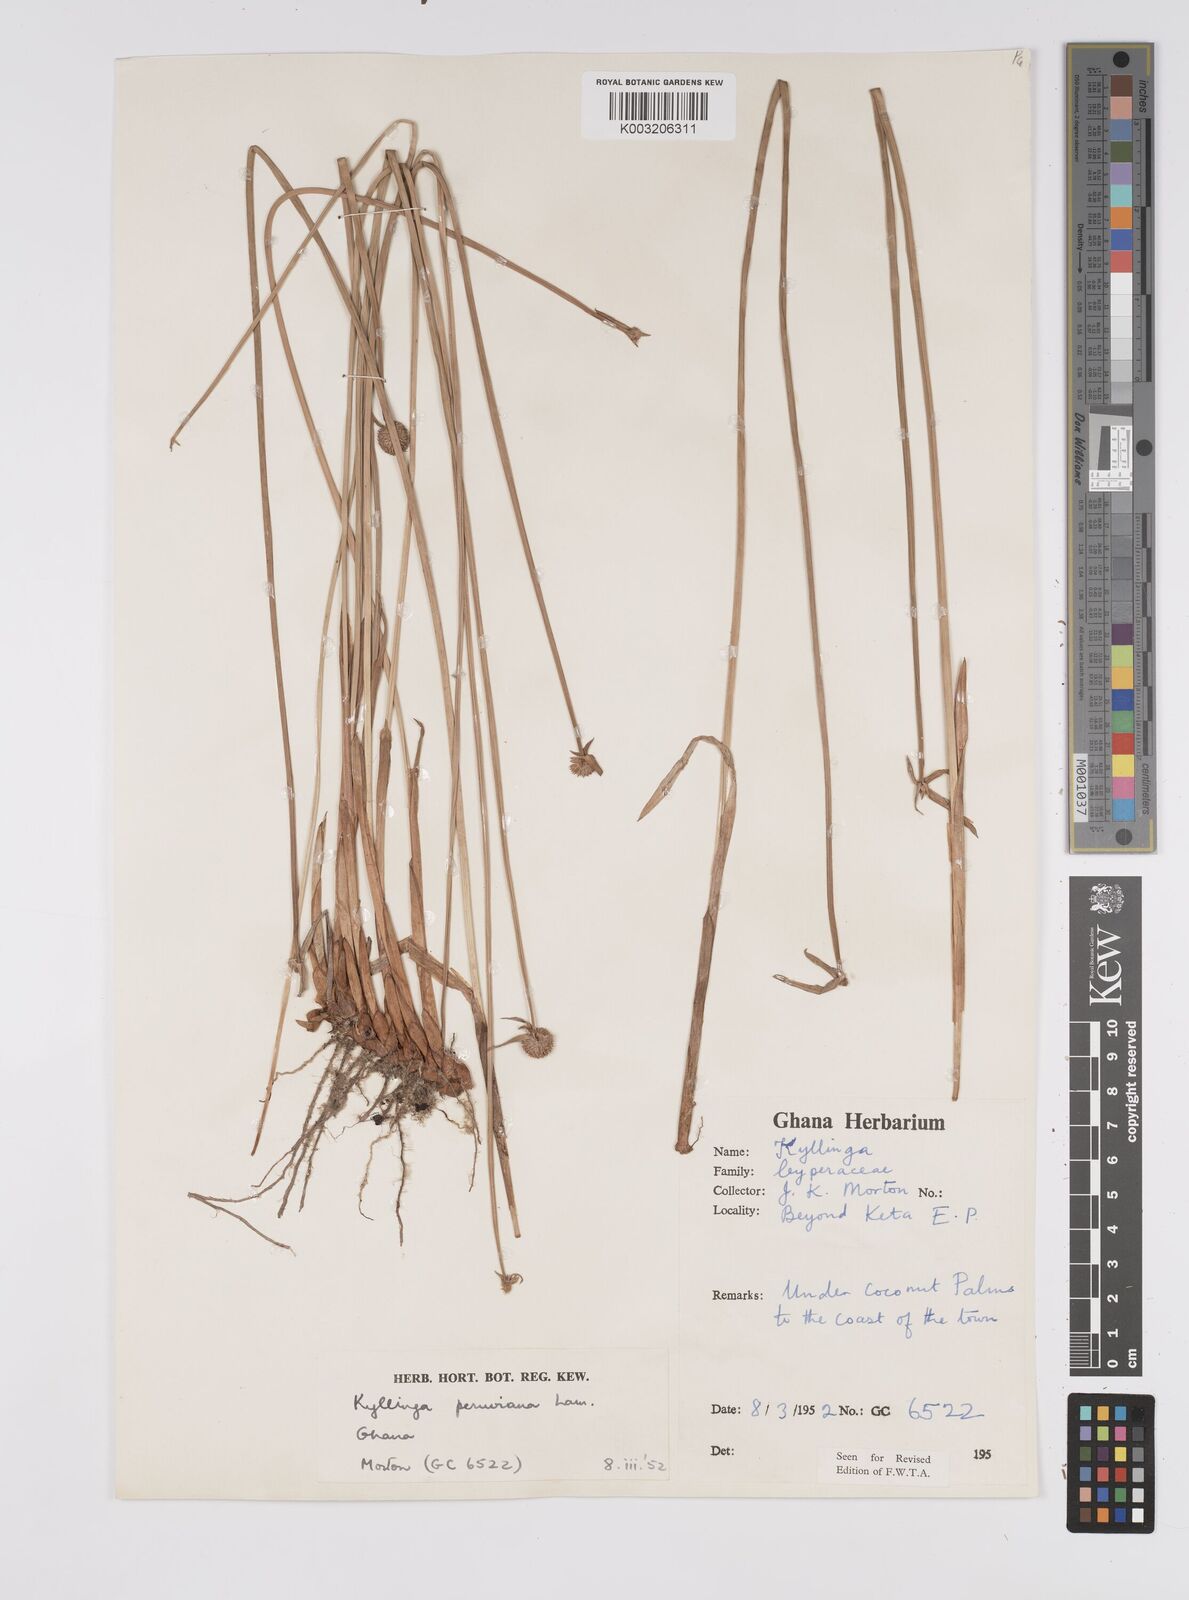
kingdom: Plantae
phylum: Tracheophyta
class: Liliopsida
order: Poales
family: Cyperaceae
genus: Cyperus
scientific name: Cyperus obtusatus
